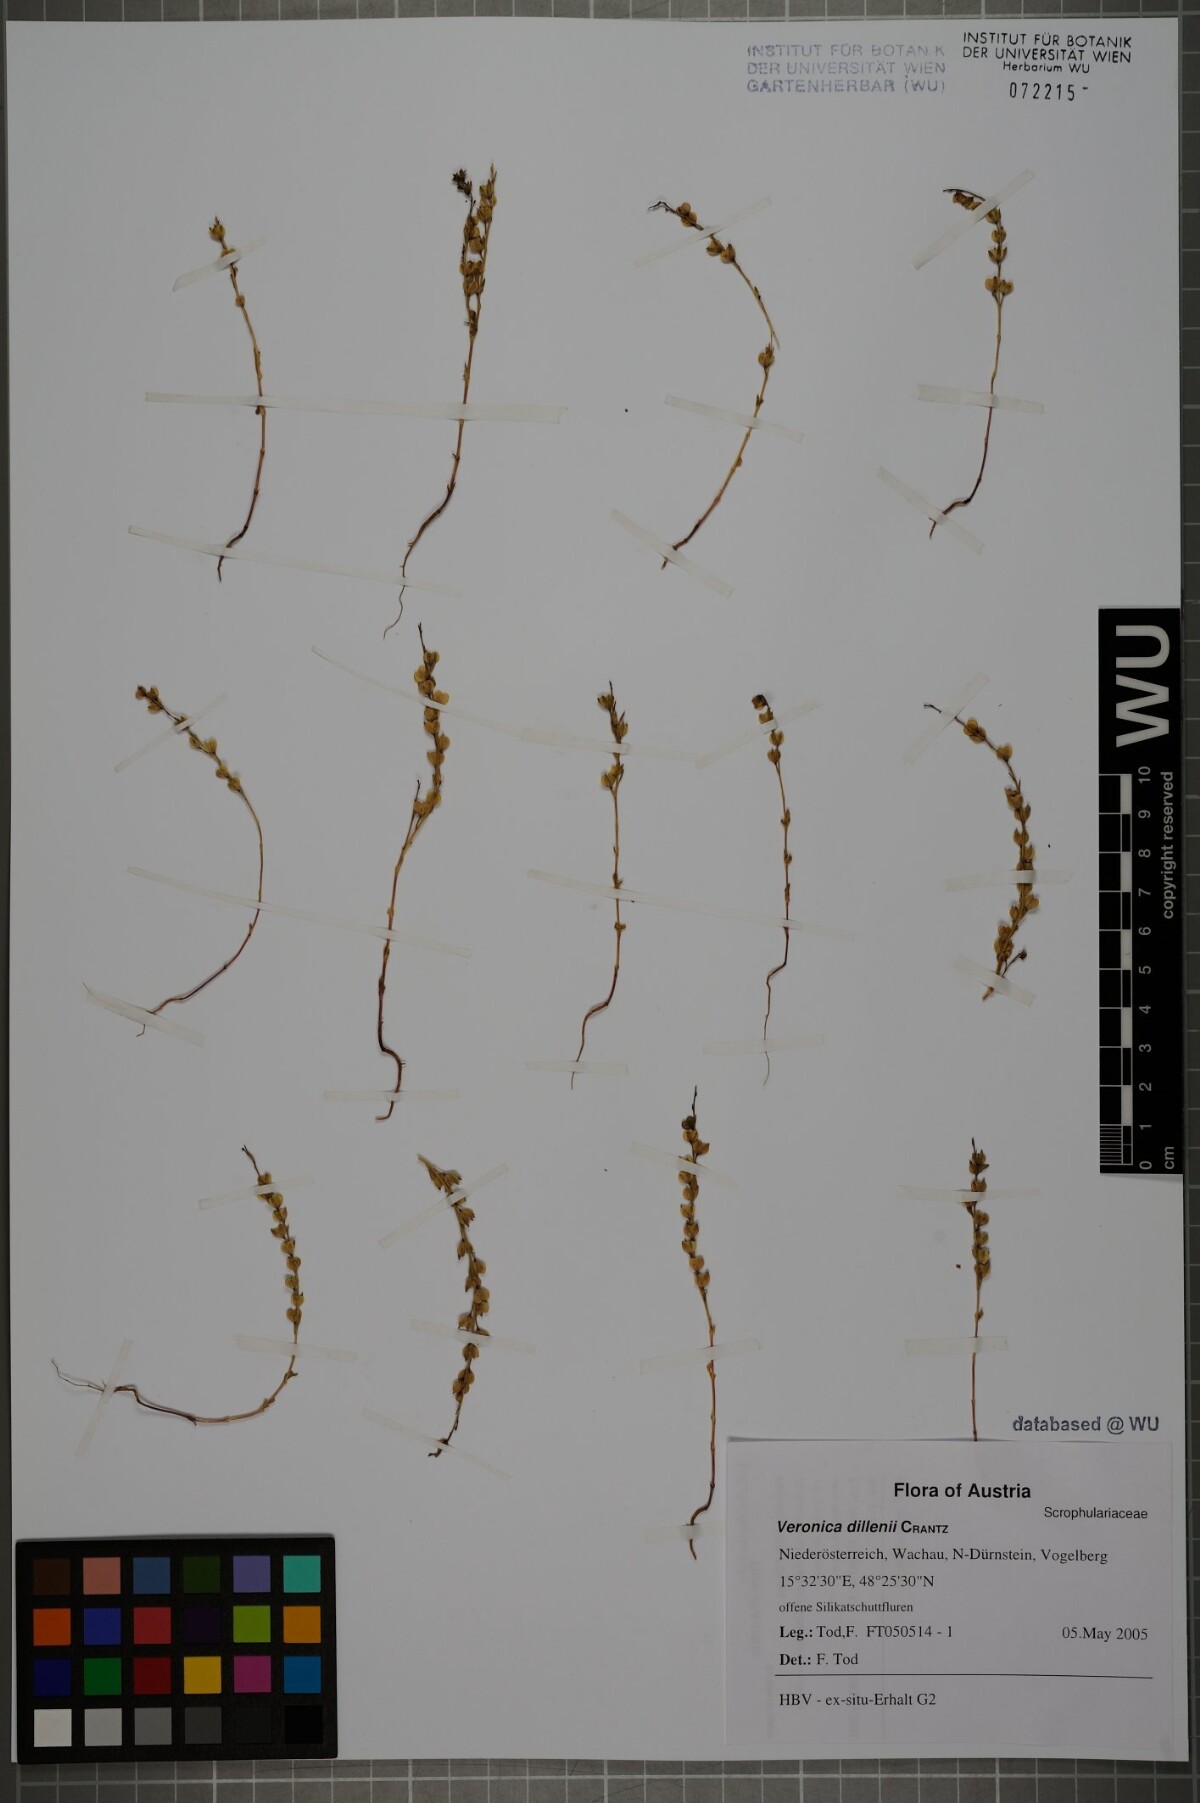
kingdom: Plantae
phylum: Tracheophyta
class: Magnoliopsida
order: Lamiales
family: Plantaginaceae
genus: Veronica
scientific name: Veronica dillenii
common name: Dillenius' speedwell
